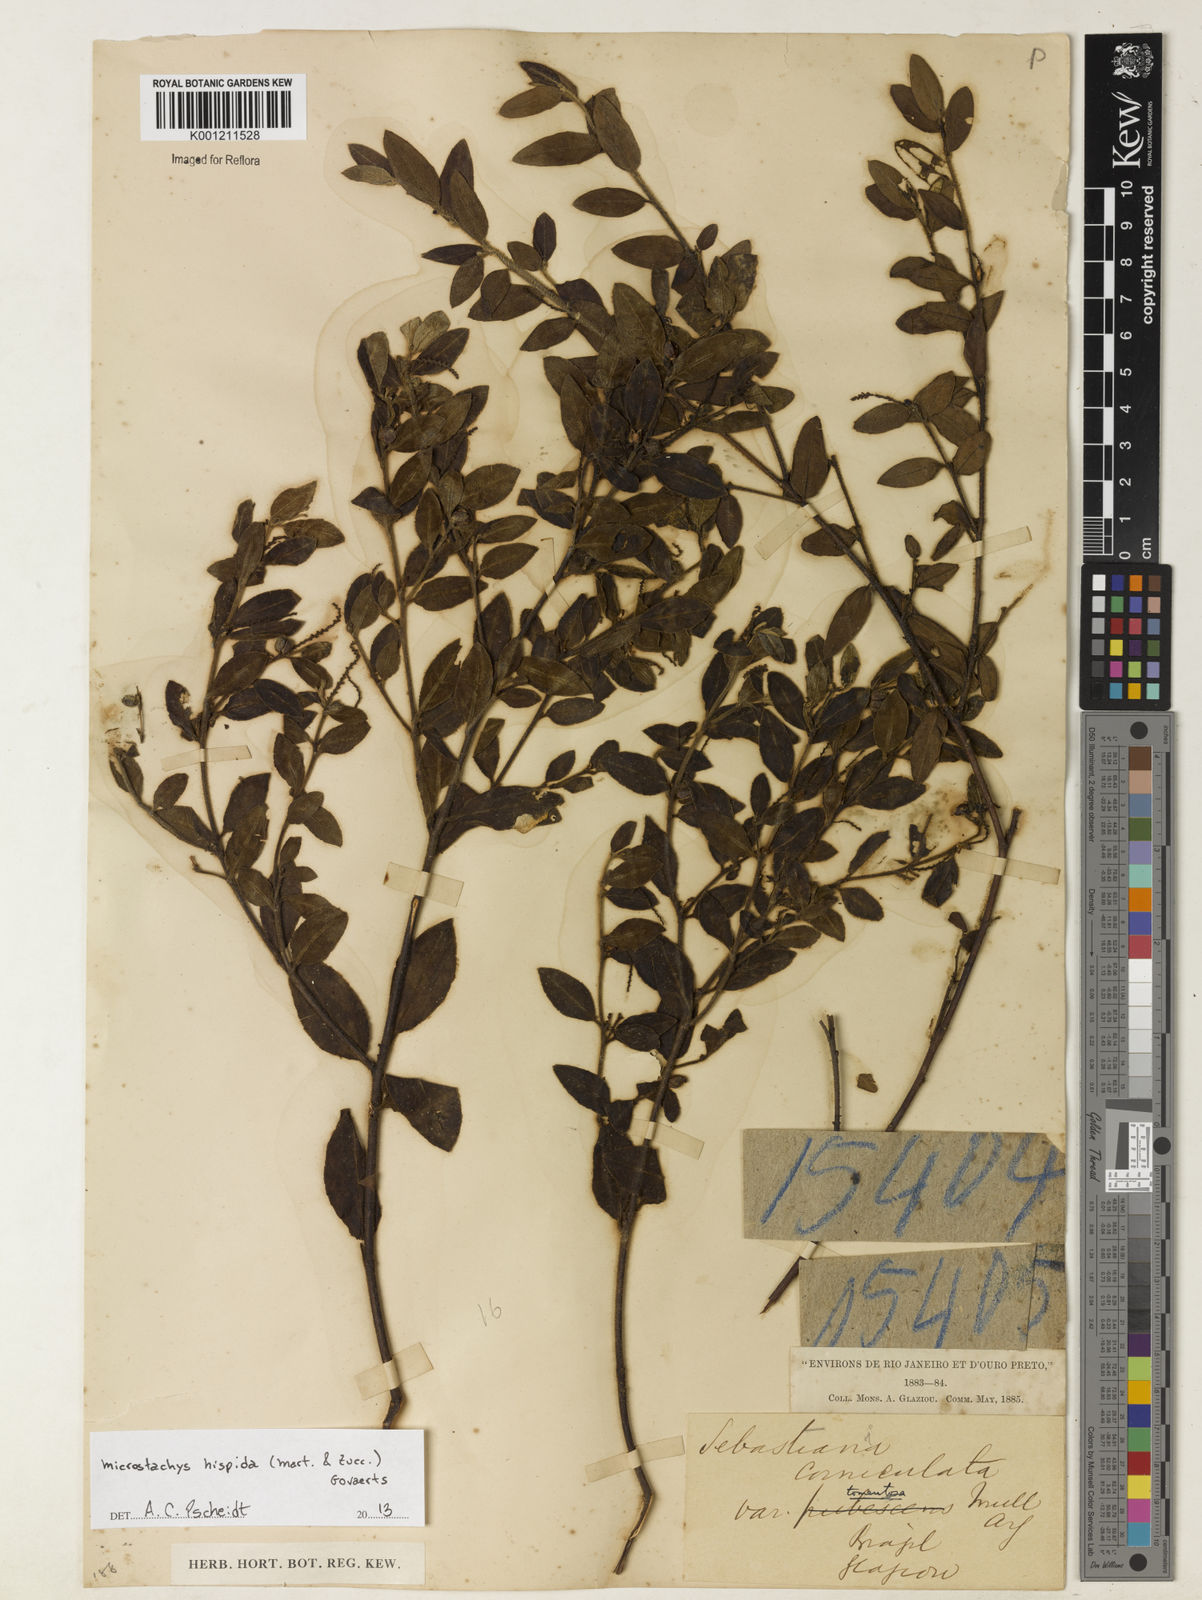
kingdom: Plantae
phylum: Tracheophyta
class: Magnoliopsida
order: Malpighiales
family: Euphorbiaceae
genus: Microstachys
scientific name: Microstachys hispida
